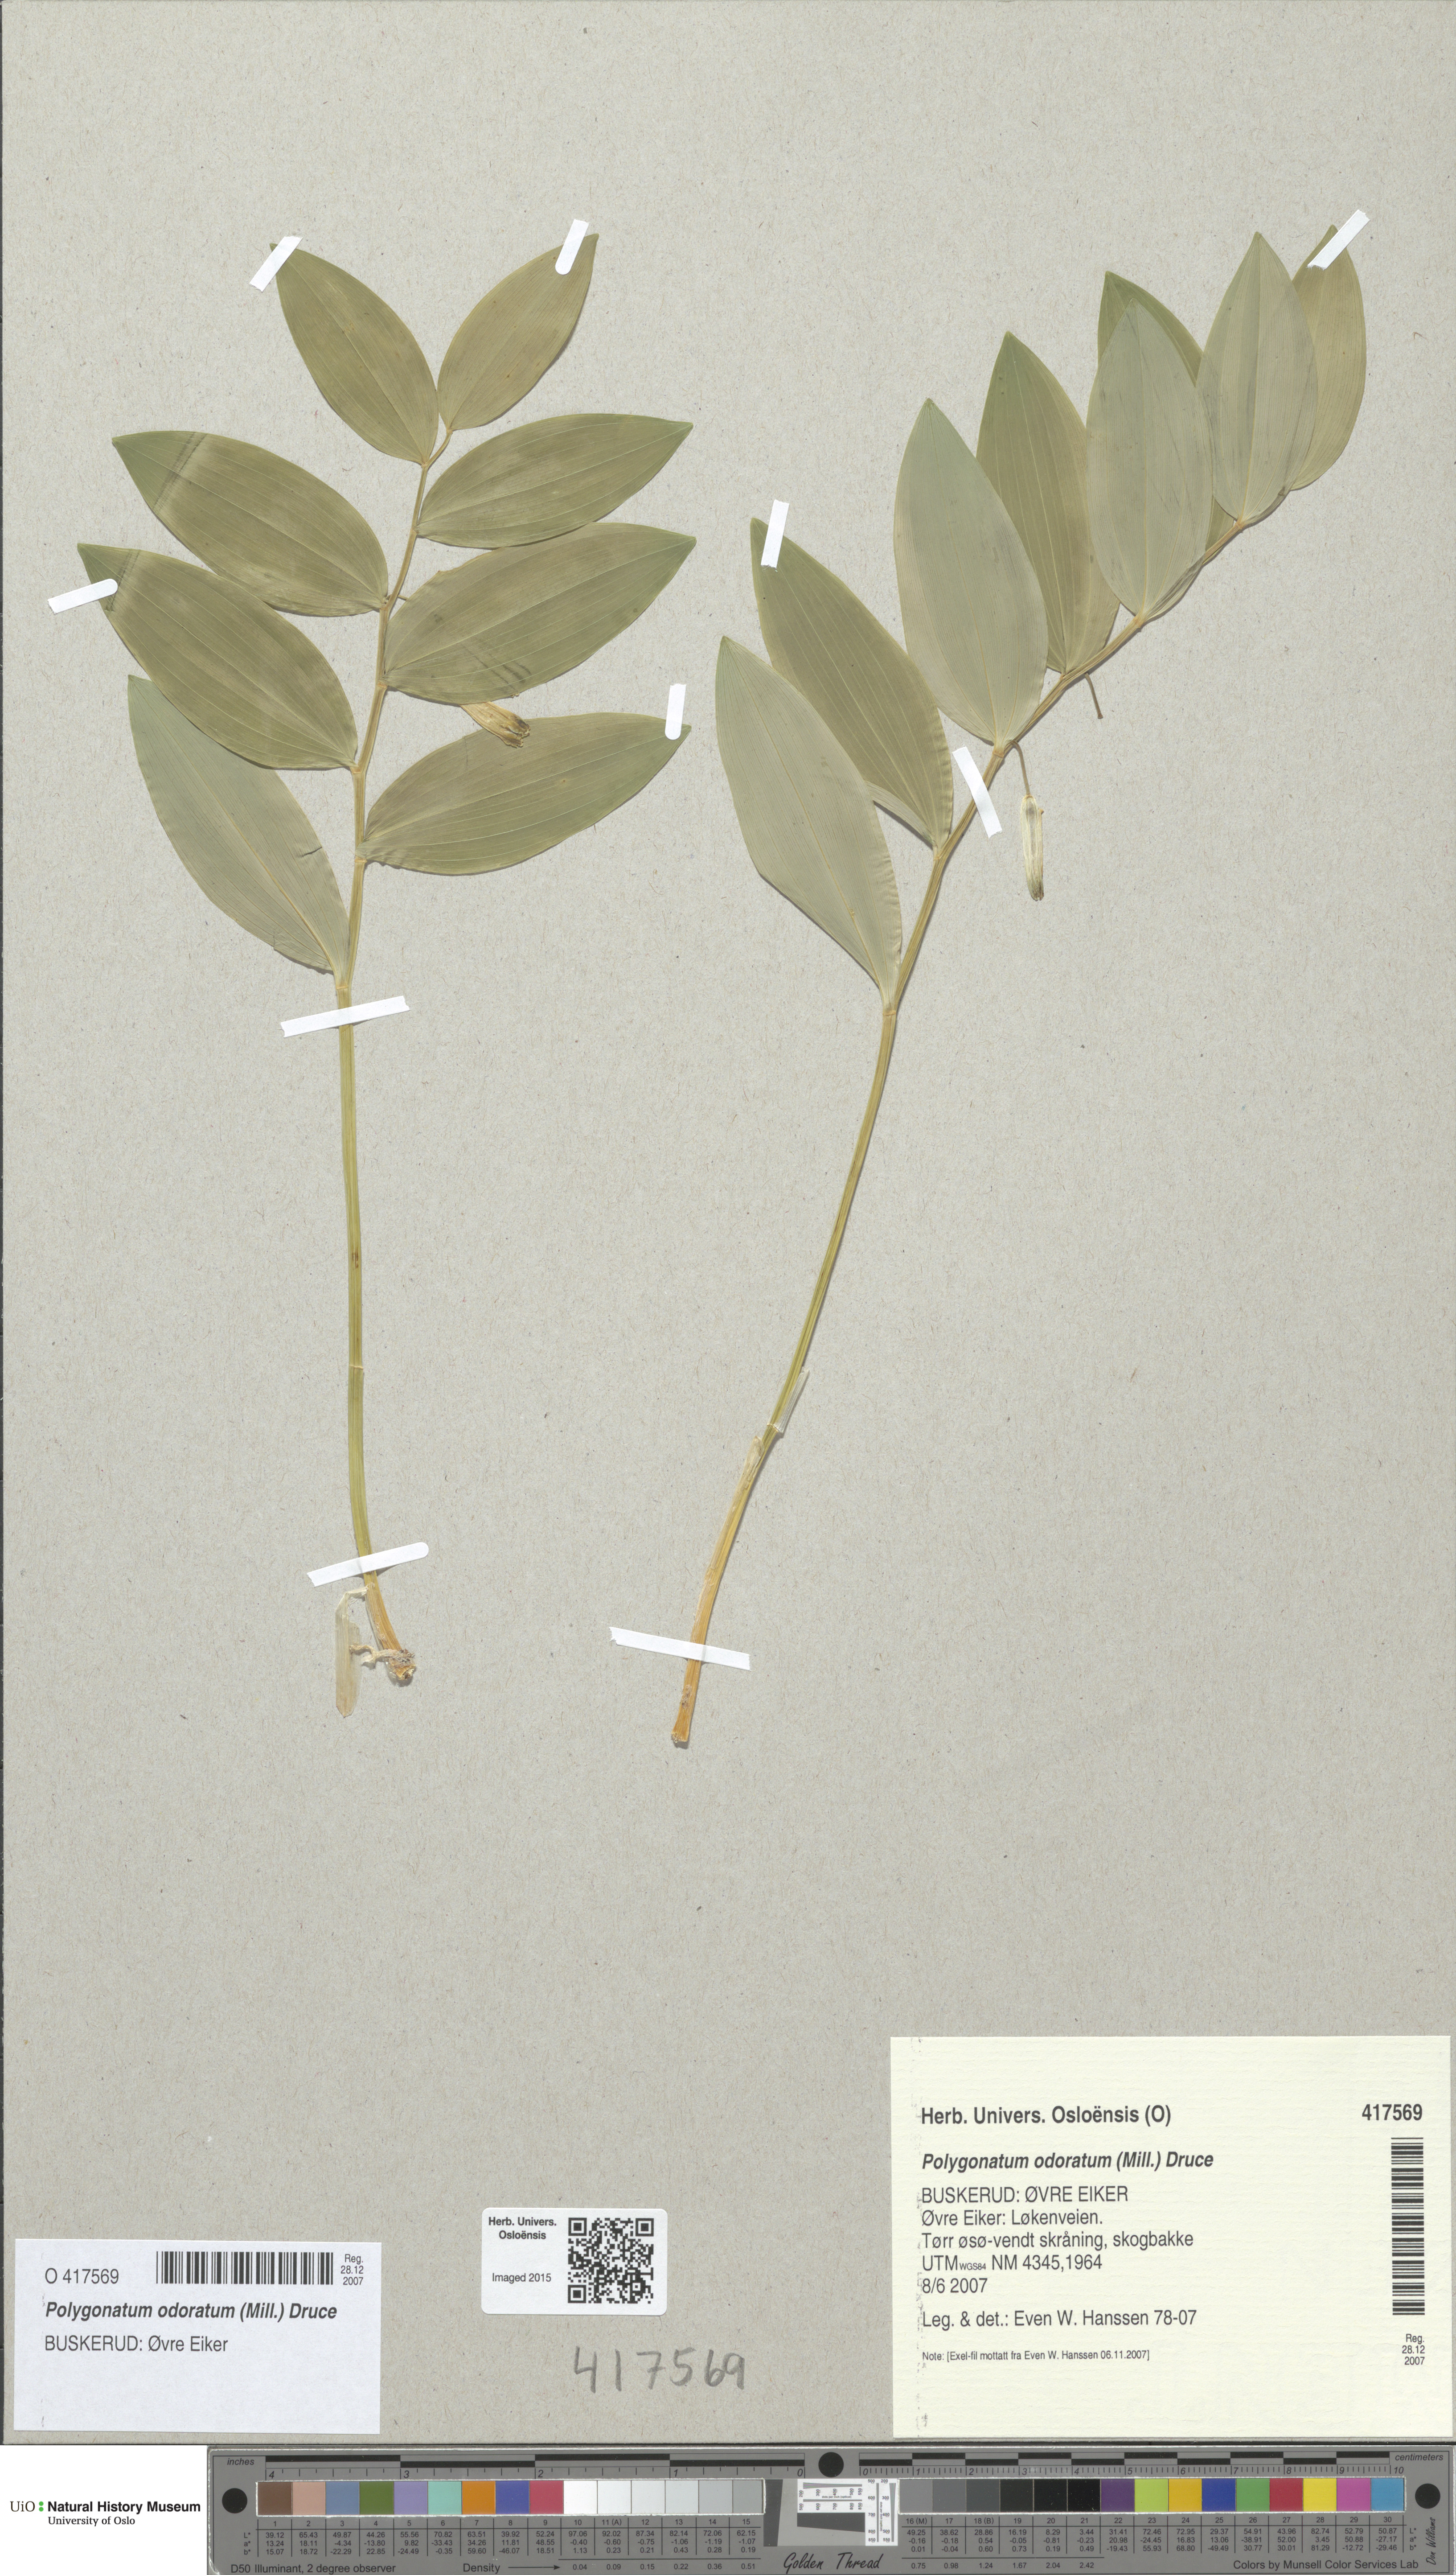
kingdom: Plantae
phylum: Tracheophyta
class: Liliopsida
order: Asparagales
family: Asparagaceae
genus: Polygonatum
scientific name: Polygonatum odoratum
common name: Angular solomon's-seal
